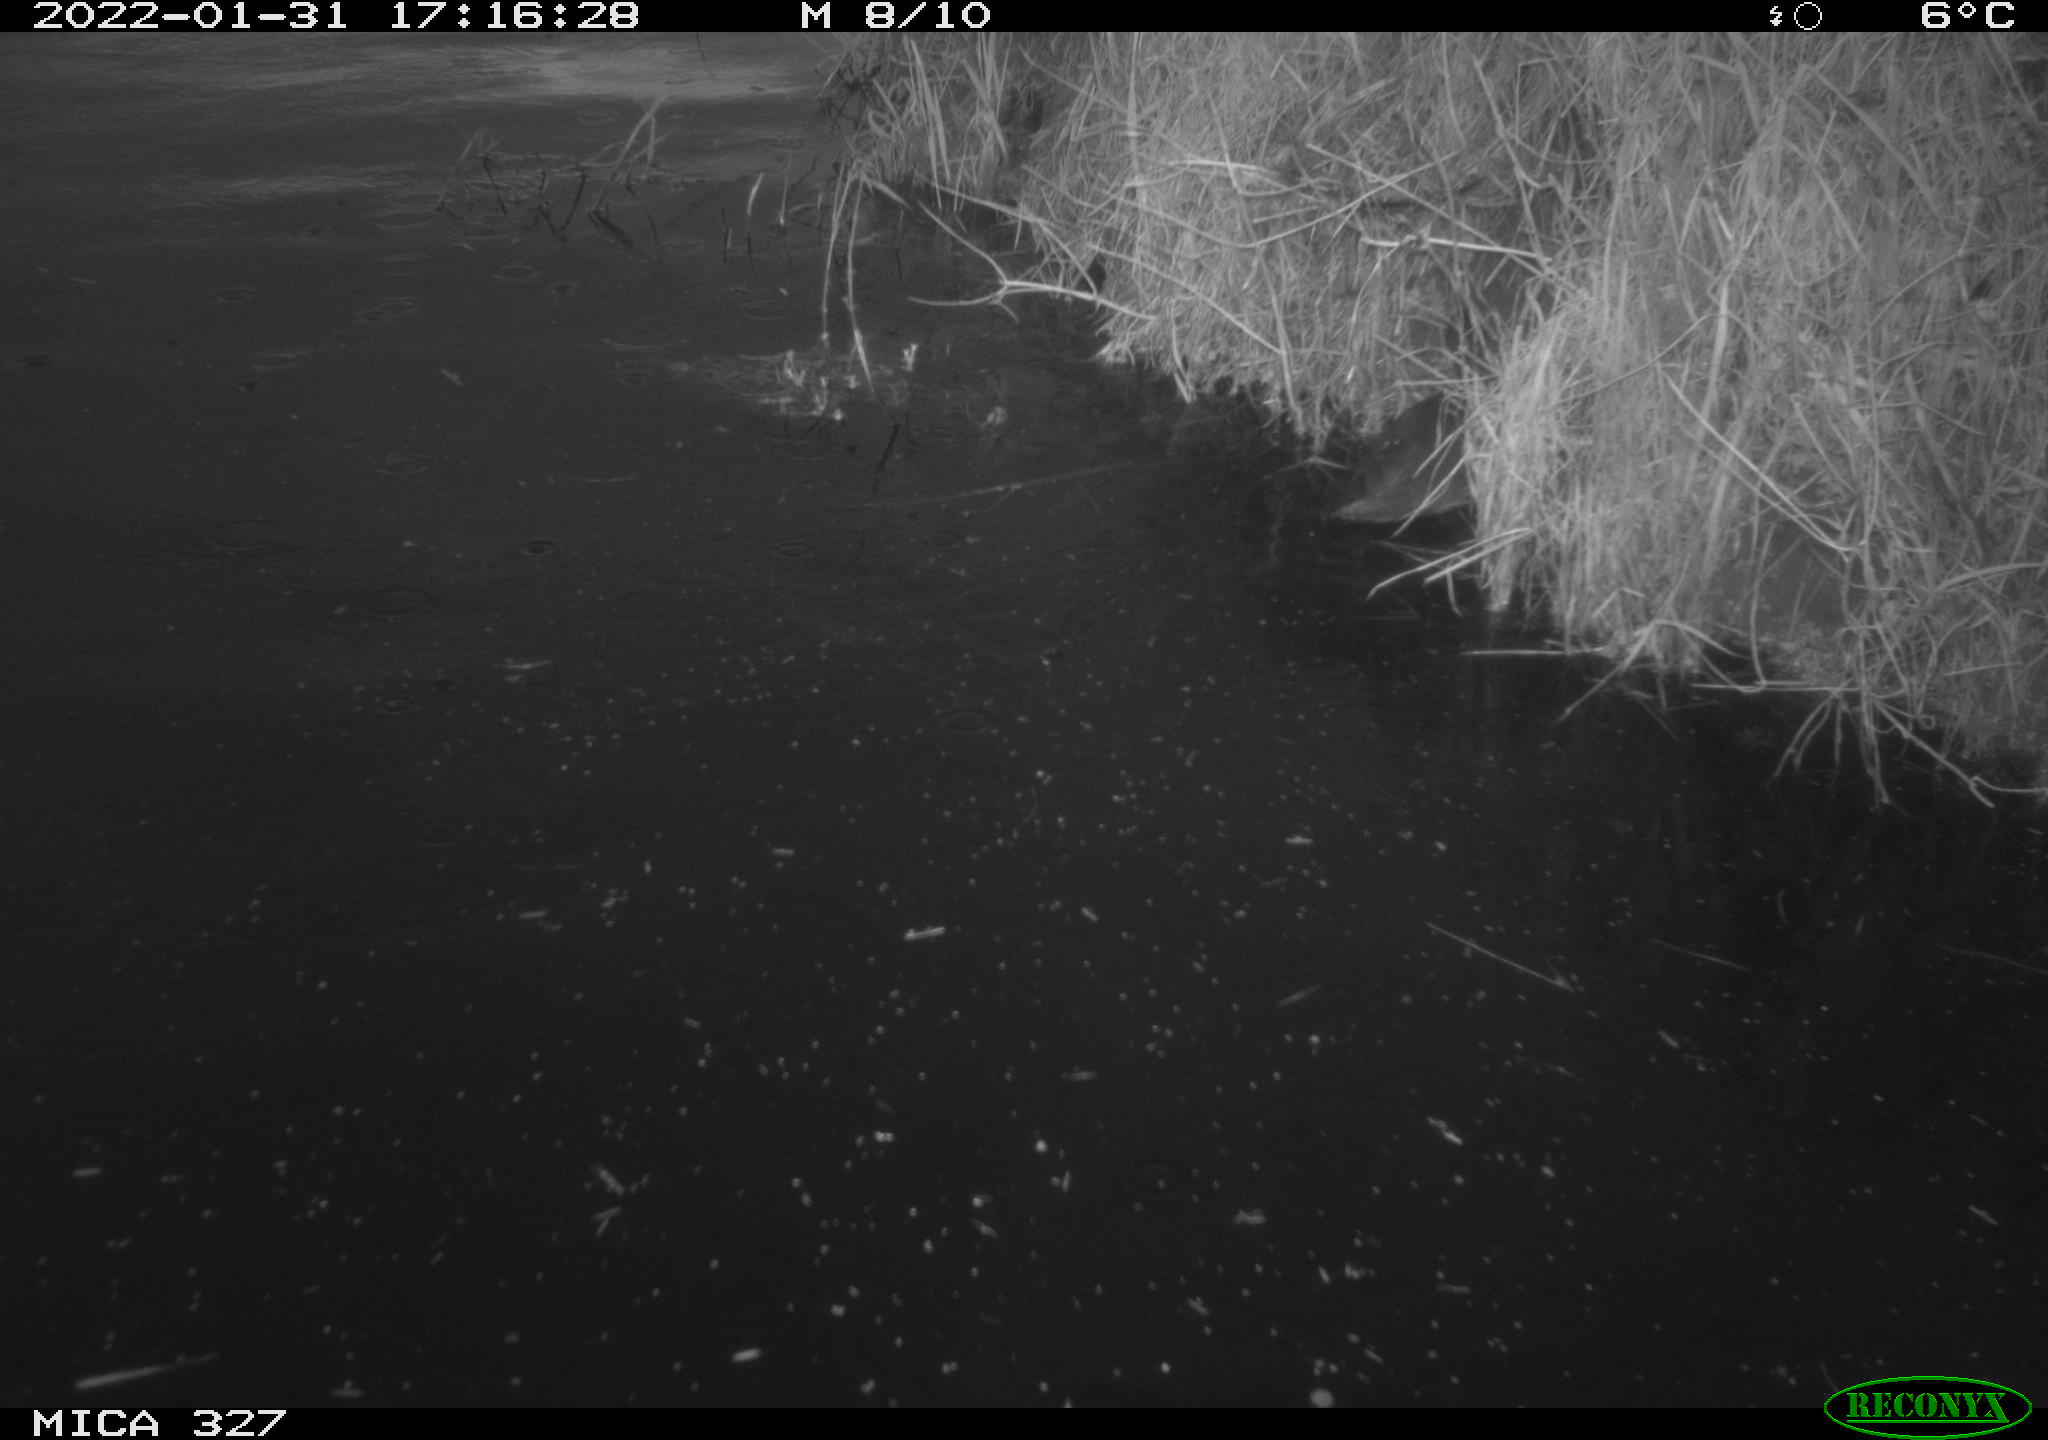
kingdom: Animalia
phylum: Chordata
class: Aves
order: Gruiformes
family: Rallidae
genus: Gallinula
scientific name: Gallinula chloropus
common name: Common moorhen
